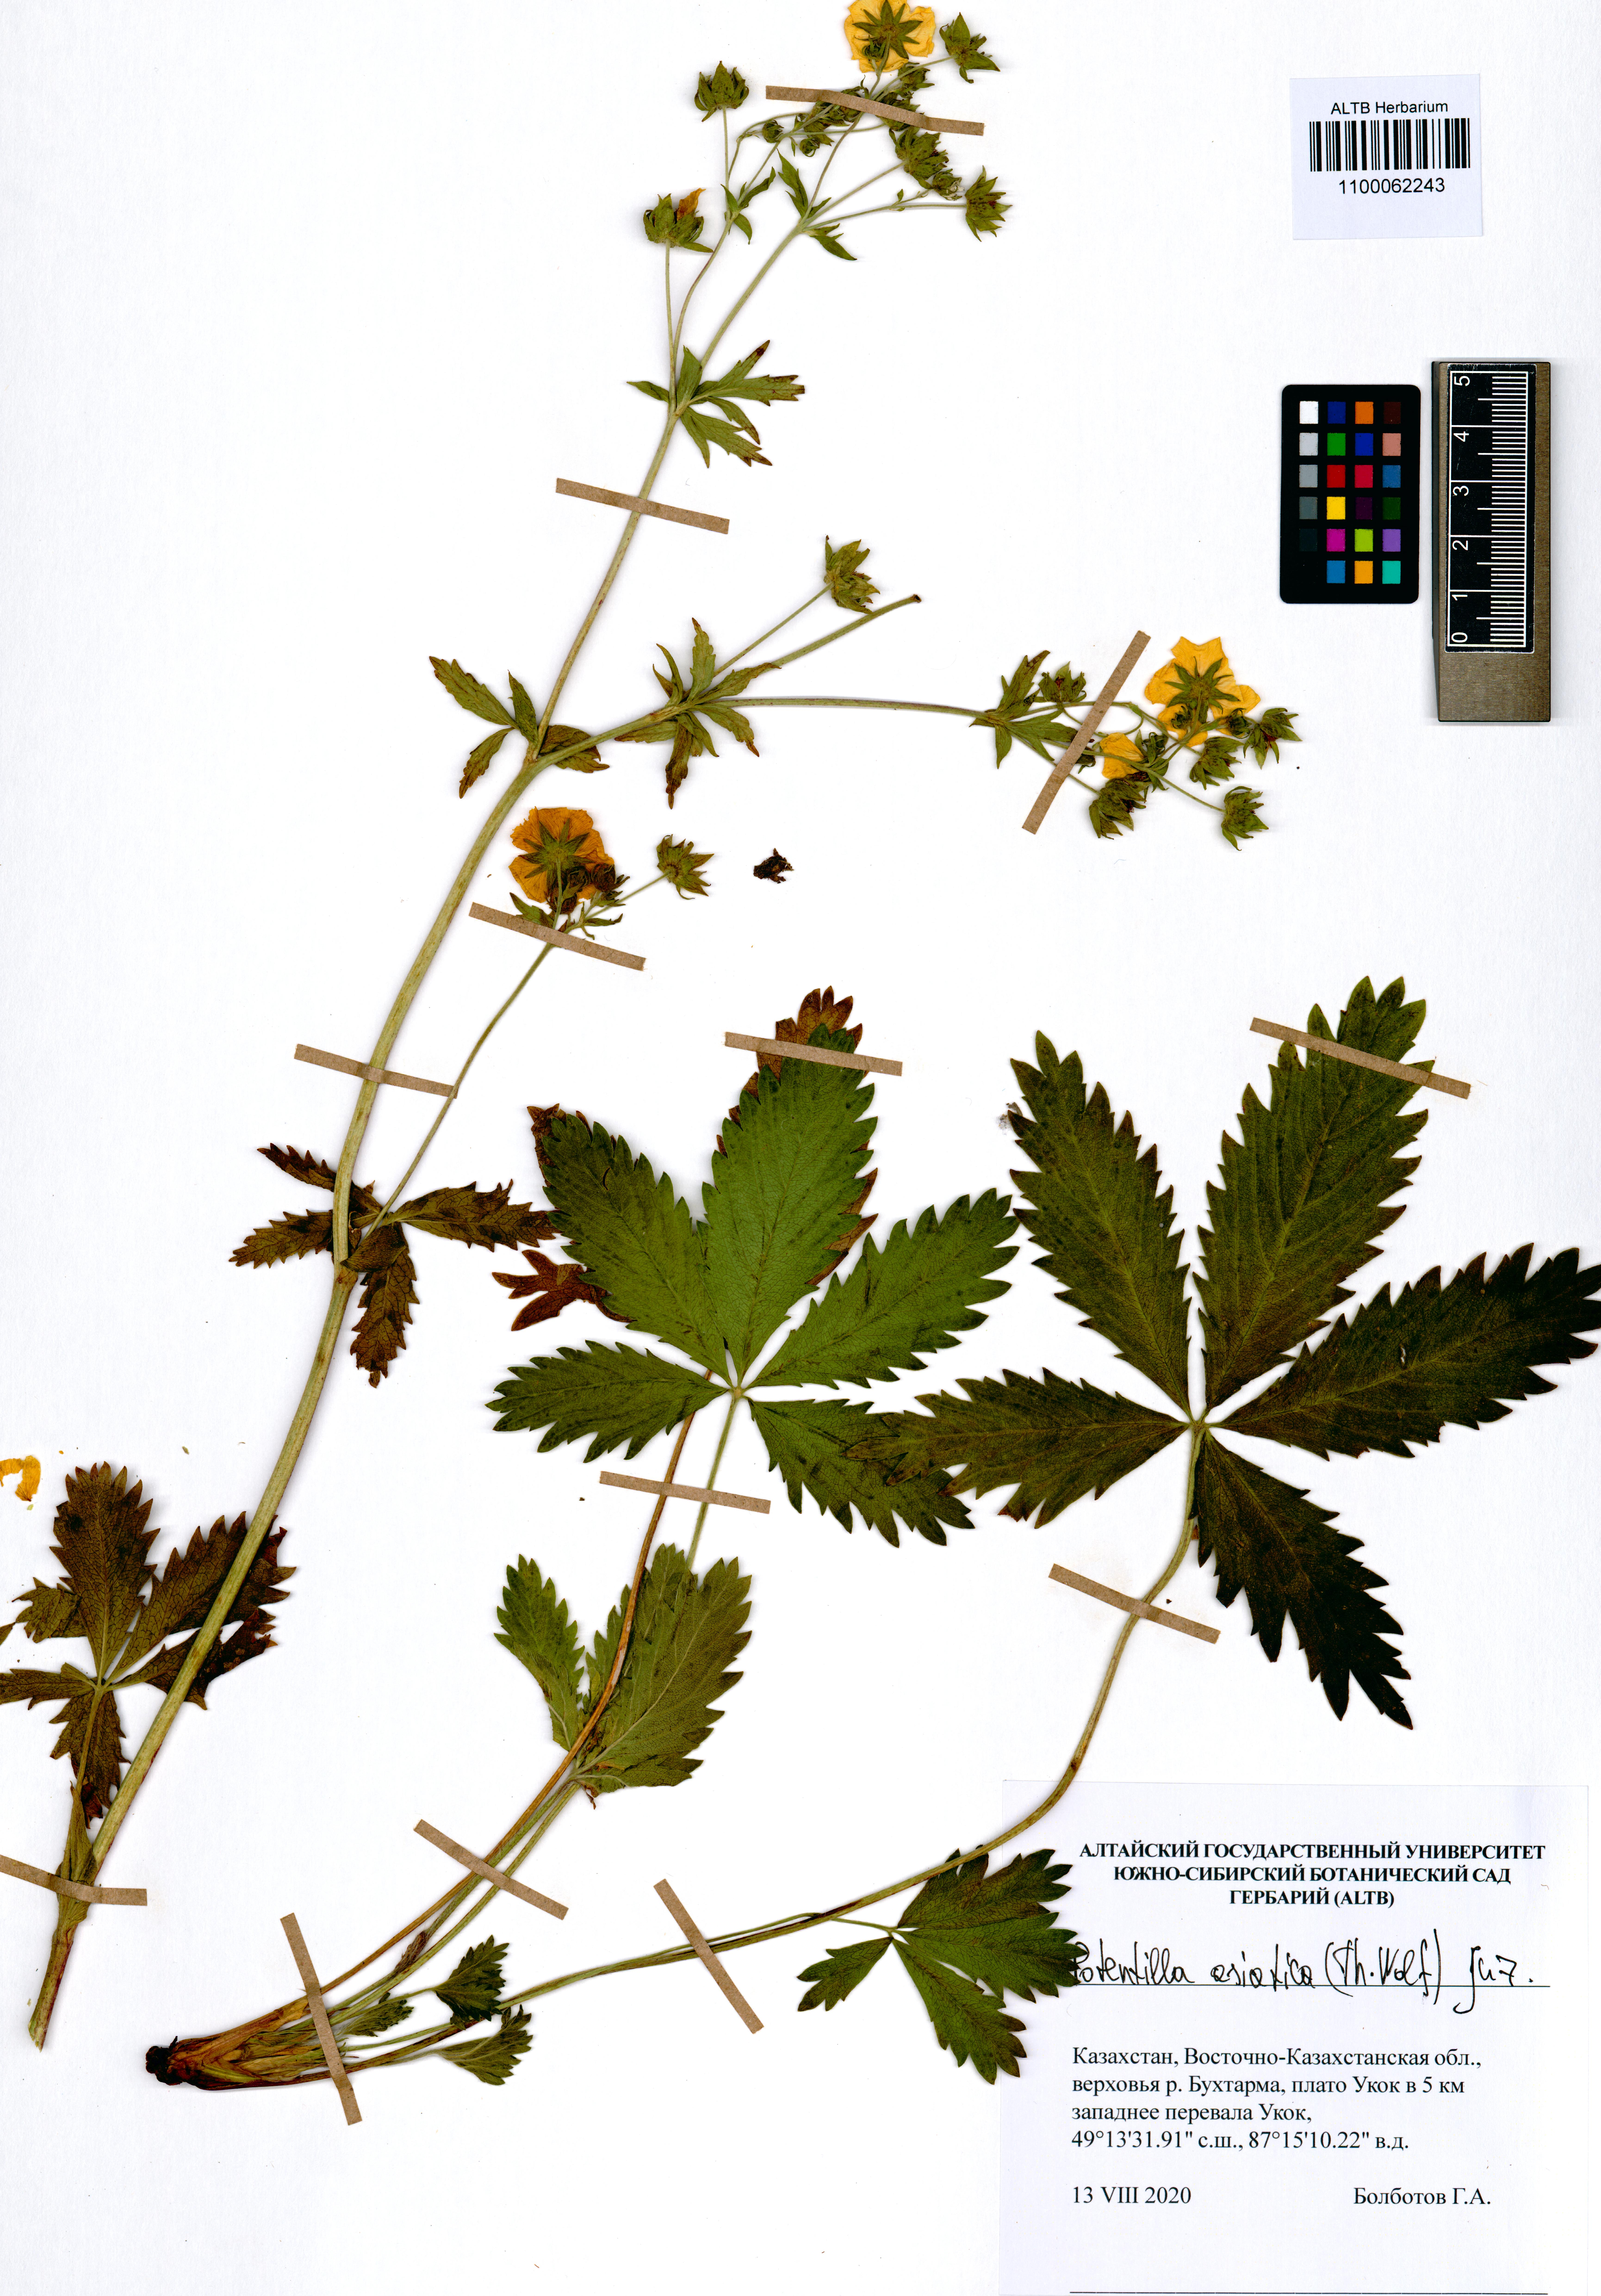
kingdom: Plantae
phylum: Tracheophyta
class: Magnoliopsida
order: Rosales
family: Rosaceae
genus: Potentilla
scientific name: Potentilla asiatica
